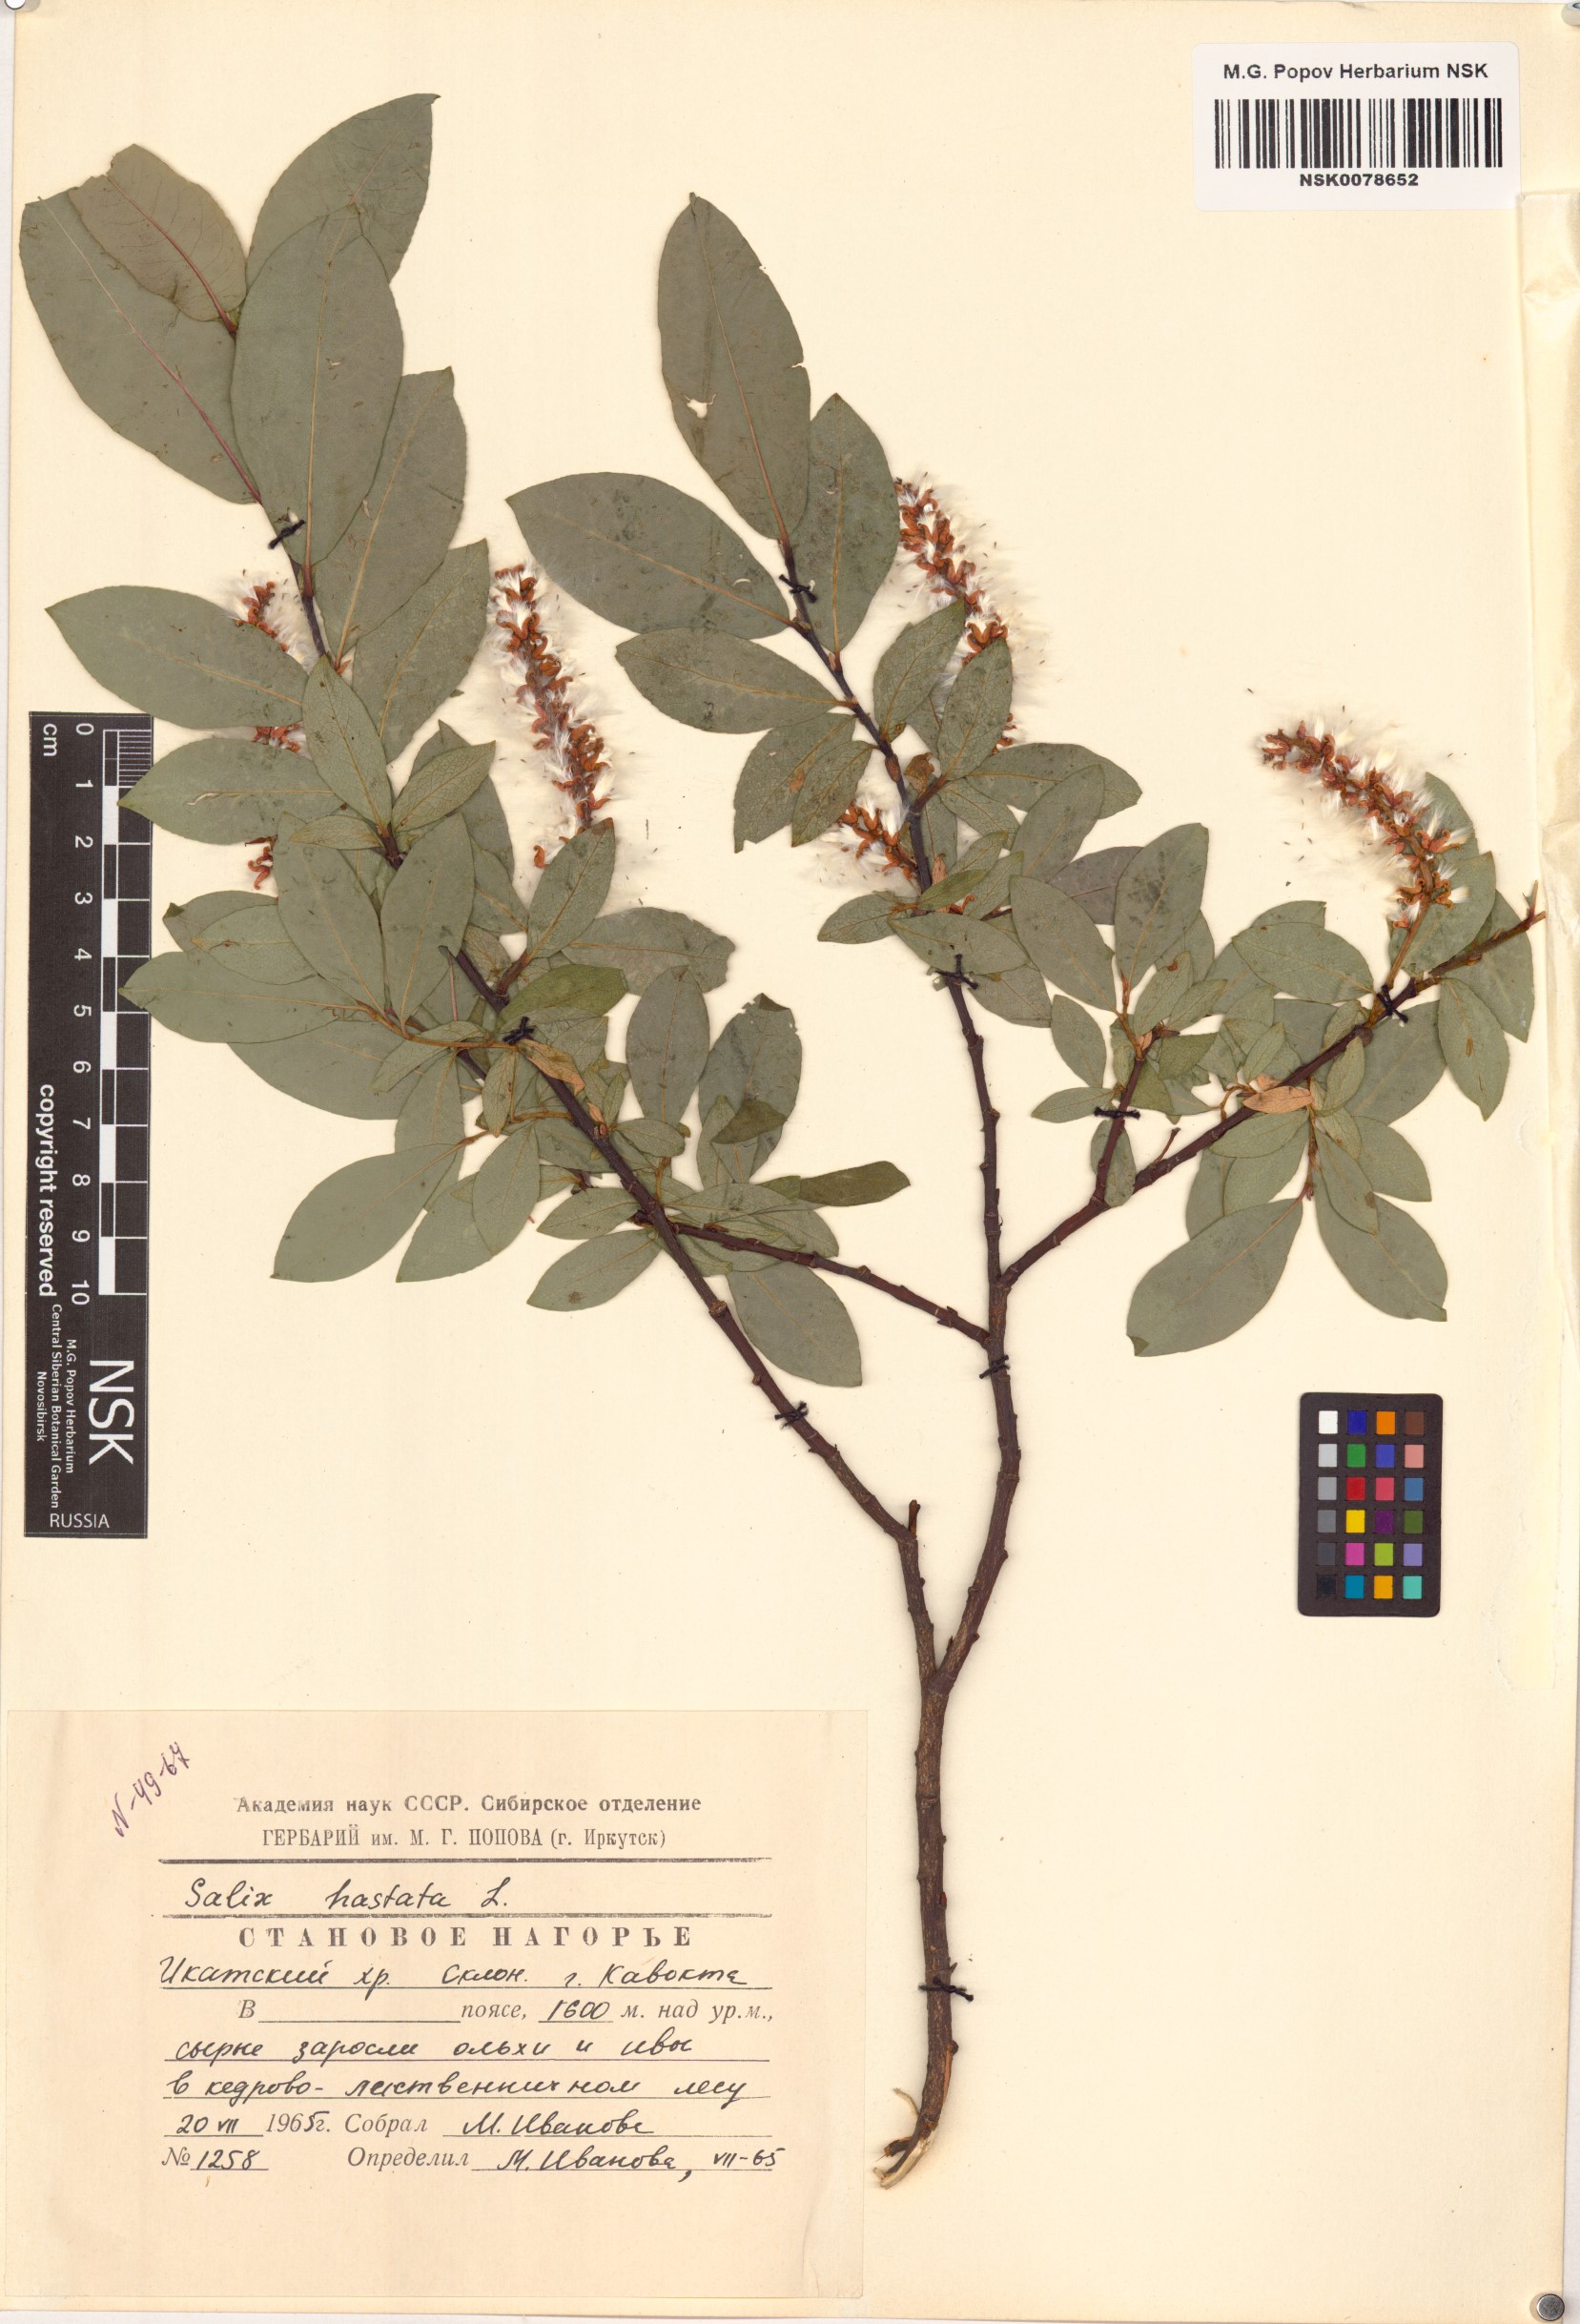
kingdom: Plantae
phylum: Tracheophyta
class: Magnoliopsida
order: Malpighiales
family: Salicaceae
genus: Salix
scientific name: Salix hastata
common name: Halberd willow
